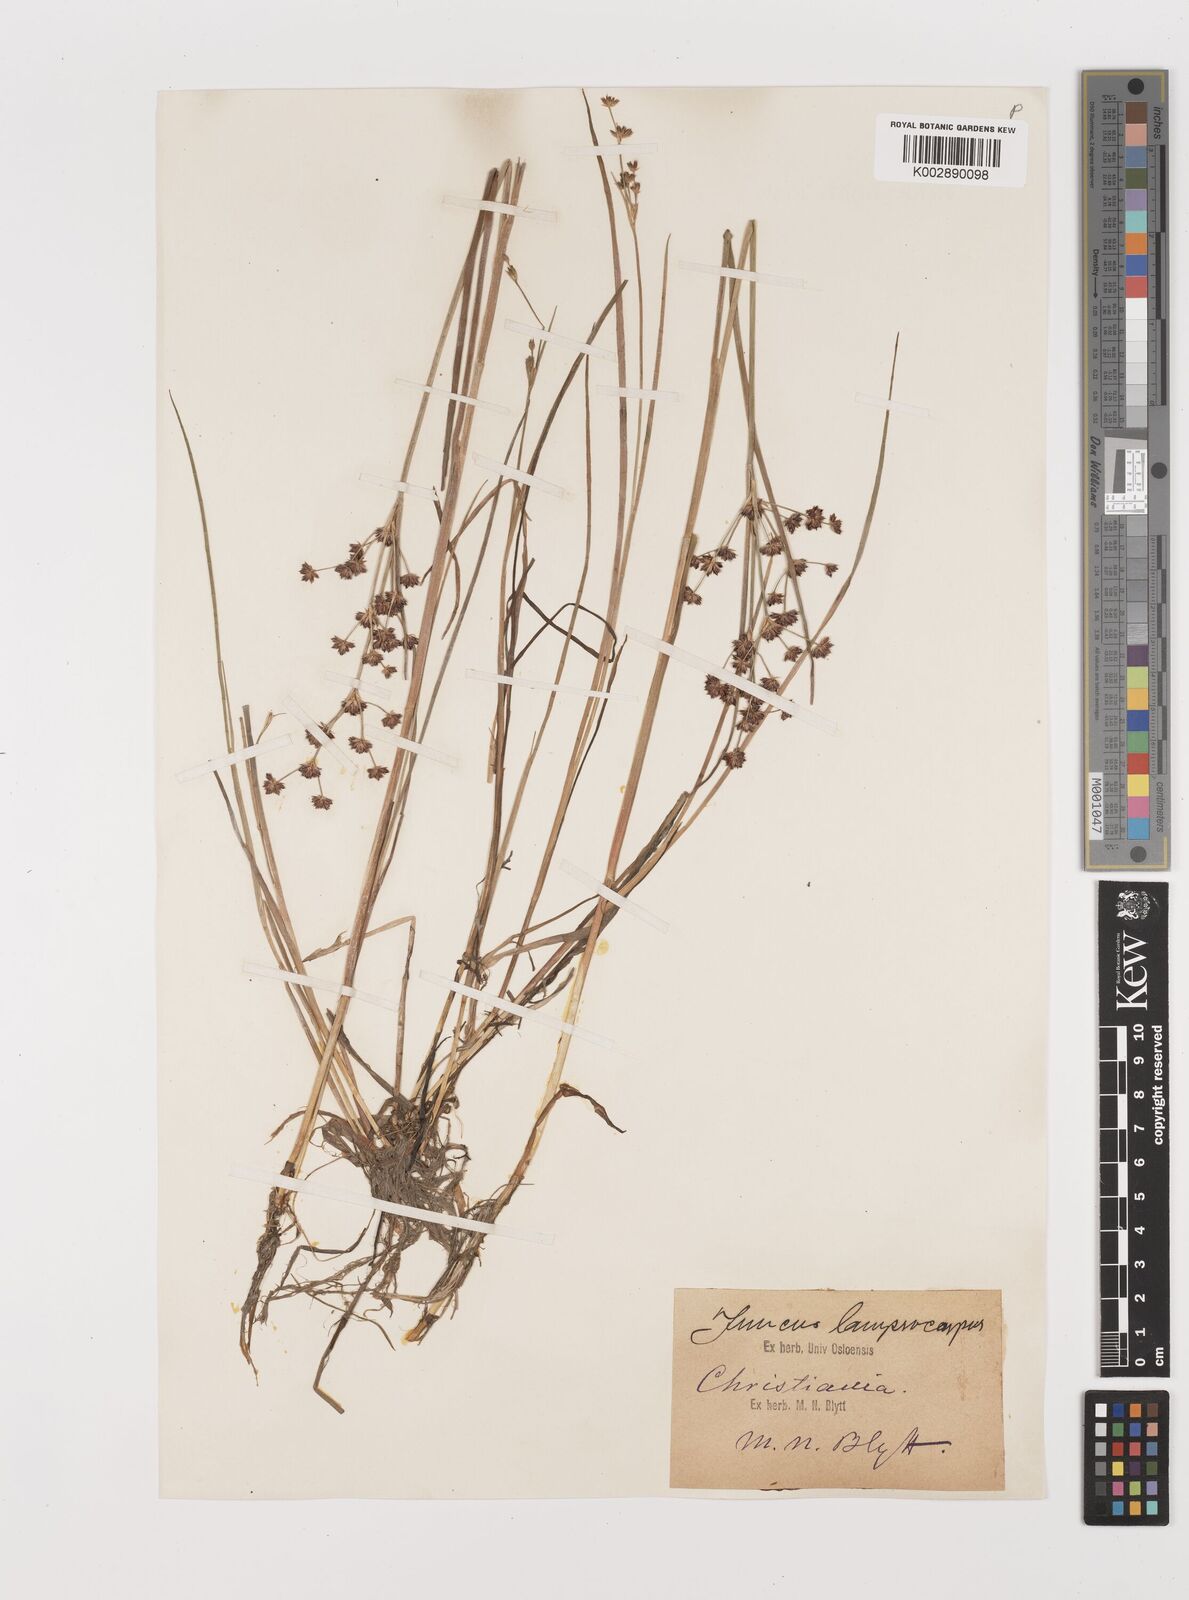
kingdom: Plantae
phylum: Tracheophyta
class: Liliopsida
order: Poales
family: Juncaceae
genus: Juncus
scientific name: Juncus articulatus
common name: Jointed rush
